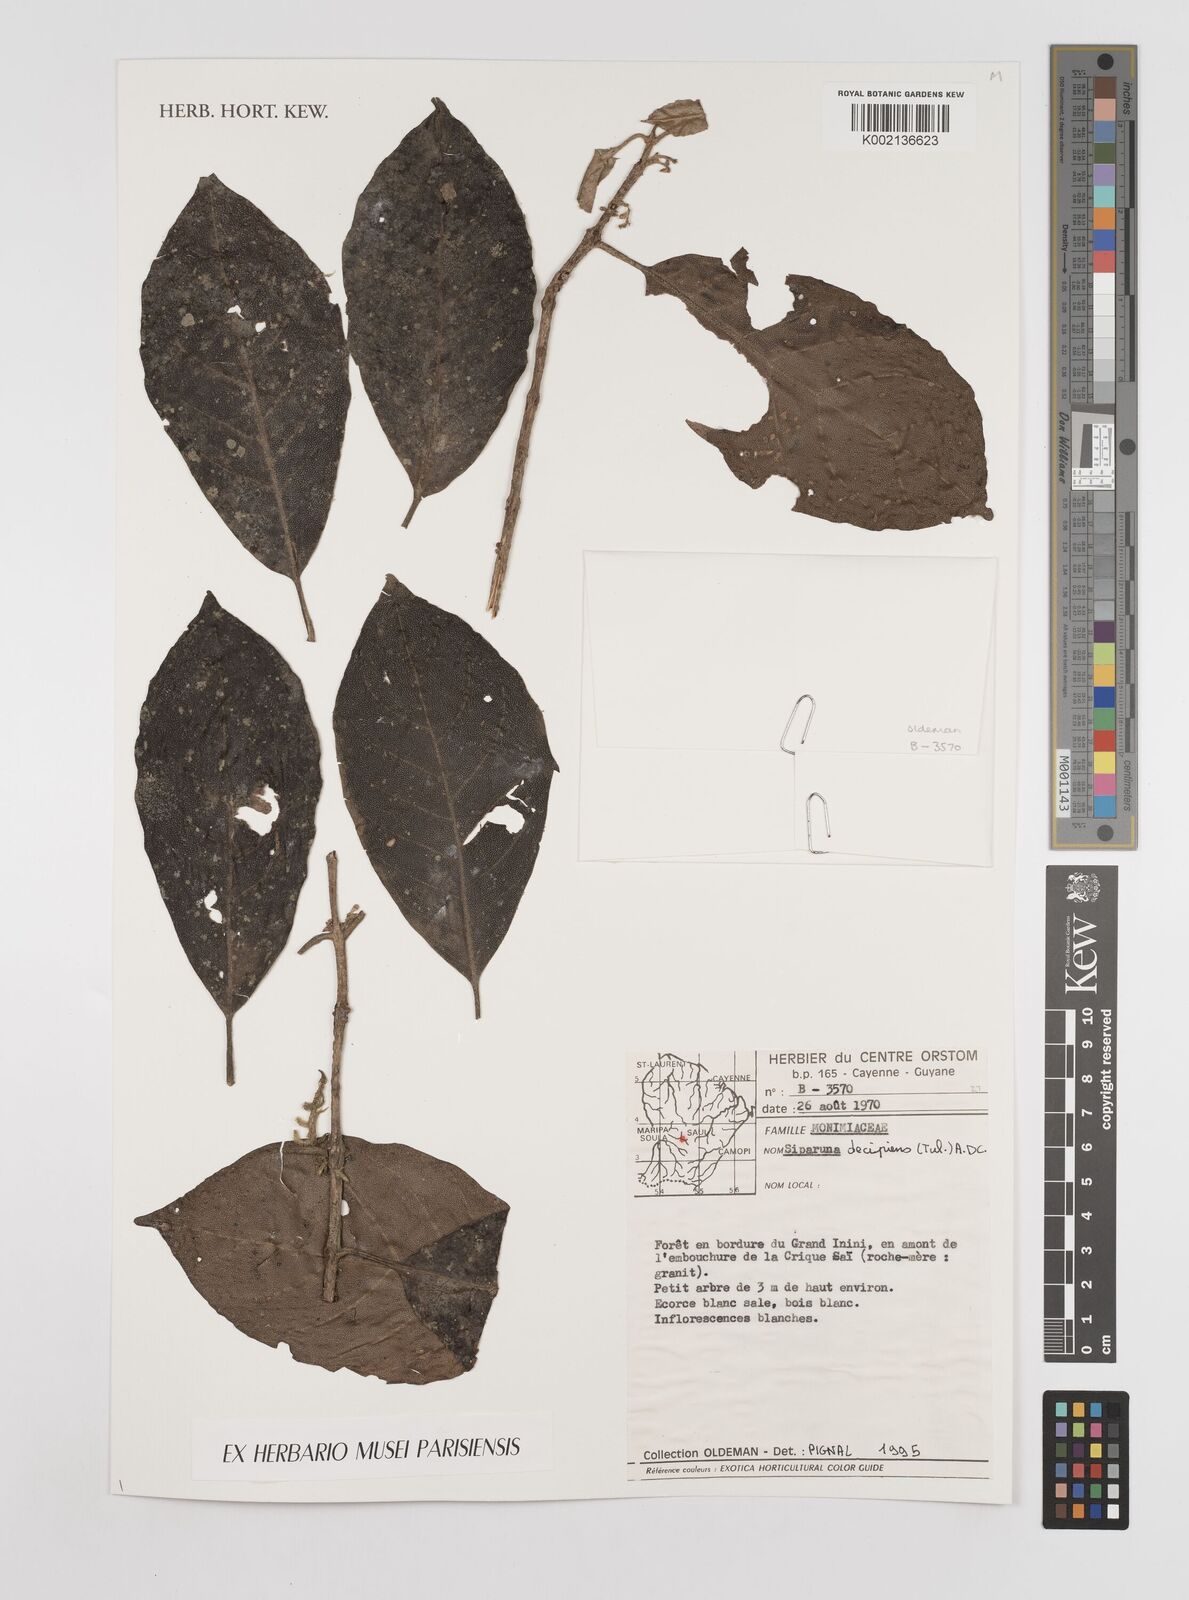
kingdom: Plantae
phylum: Tracheophyta
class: Magnoliopsida
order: Laurales
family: Siparunaceae
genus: Siparuna
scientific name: Siparuna decipiens
